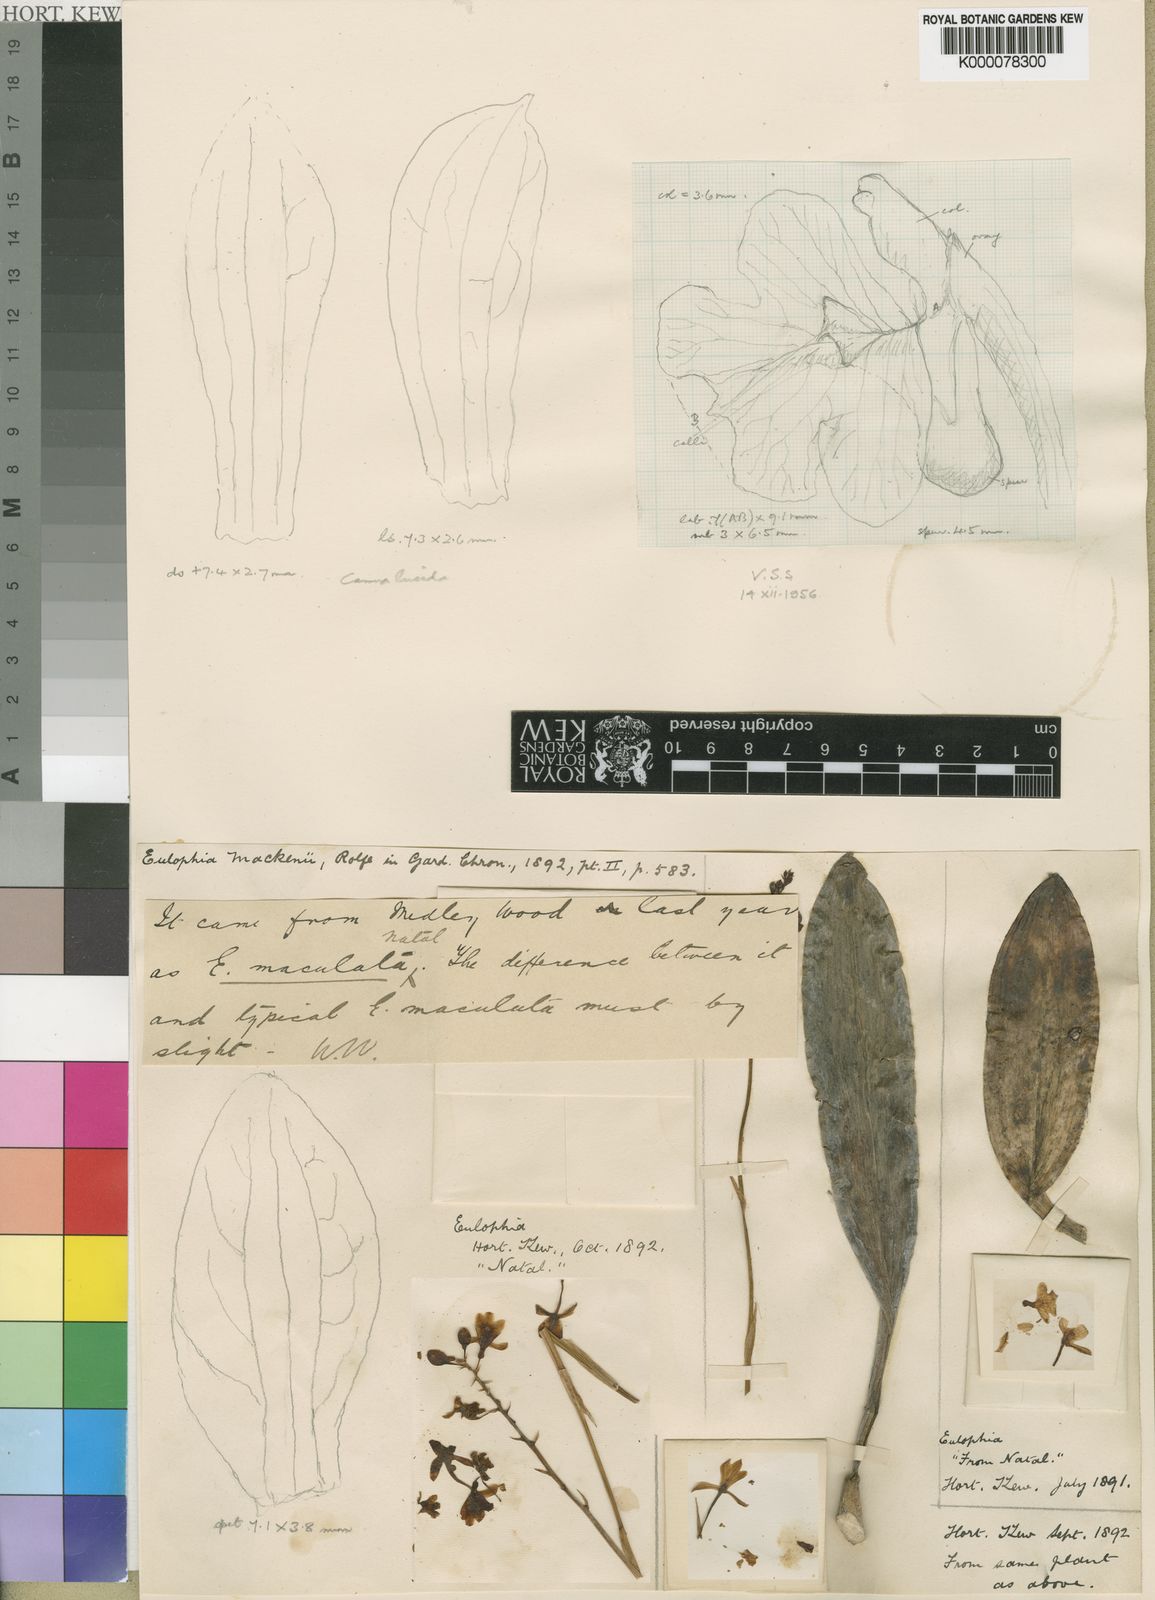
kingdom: Plantae
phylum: Tracheophyta
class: Liliopsida
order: Asparagales
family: Orchidaceae
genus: Eulophia
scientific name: Eulophia maculata
